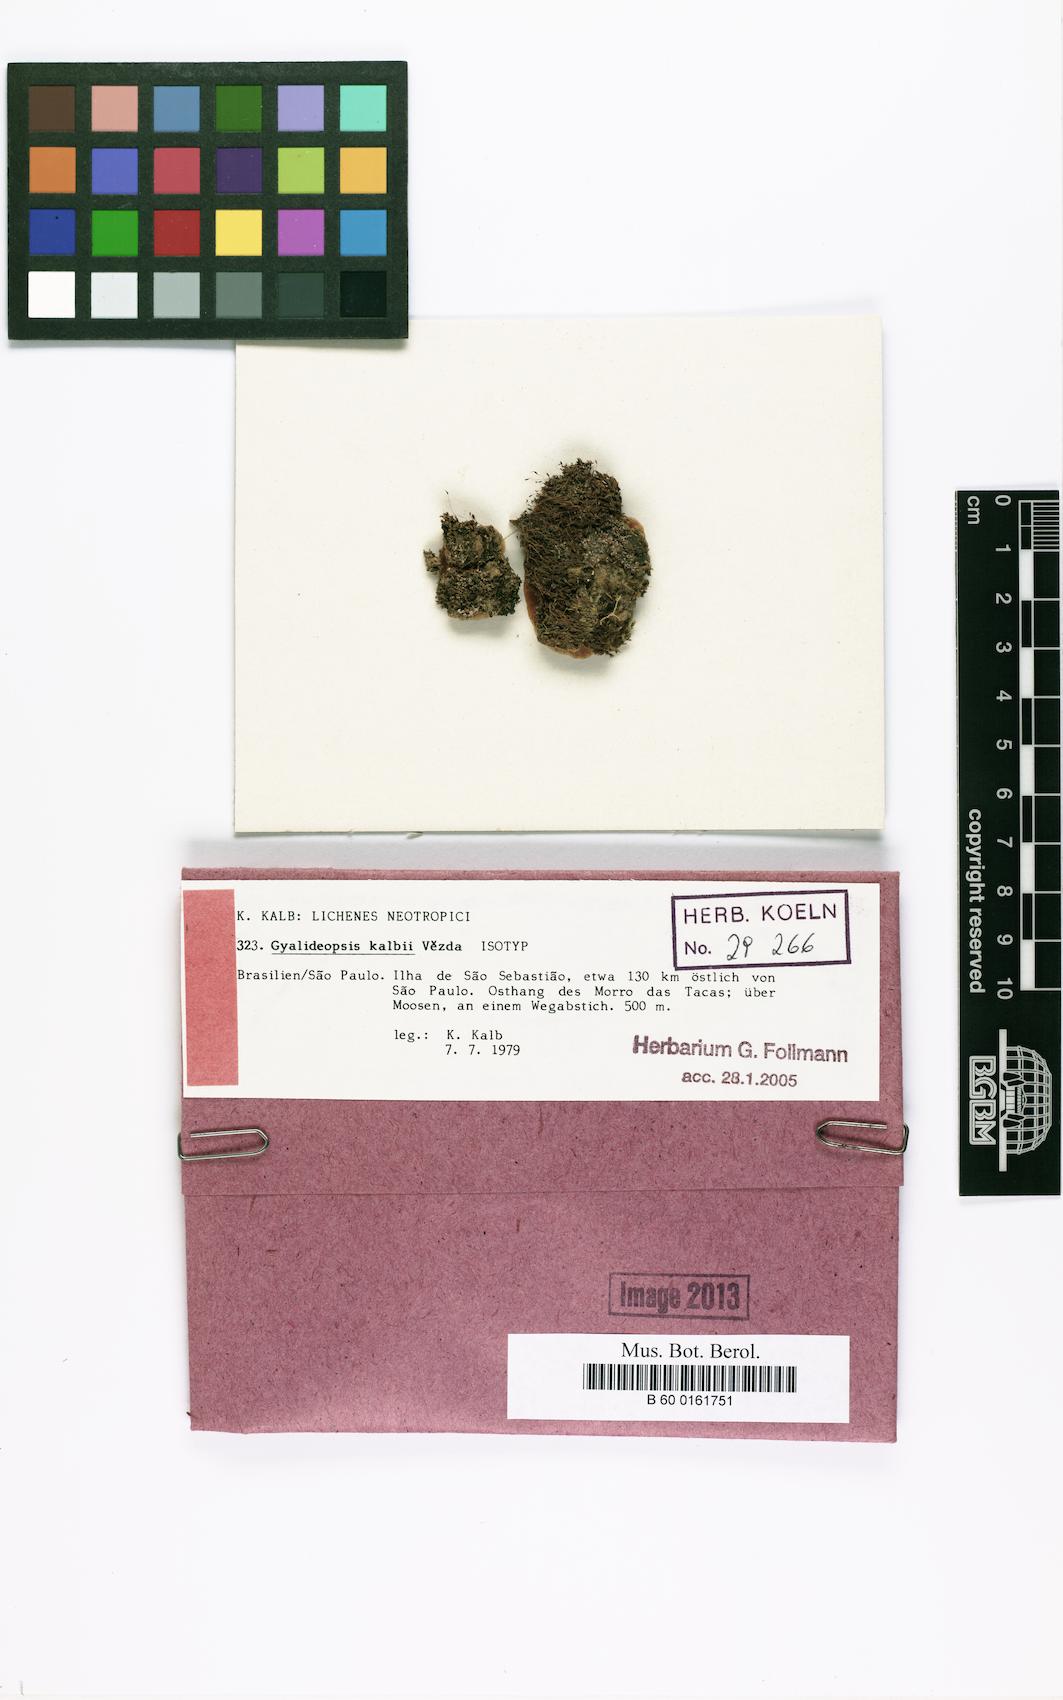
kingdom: Fungi
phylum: Ascomycota
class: Lecanoromycetes
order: Ostropales
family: Gomphillaceae
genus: Gyalideopsis
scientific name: Gyalideopsis kalbii
